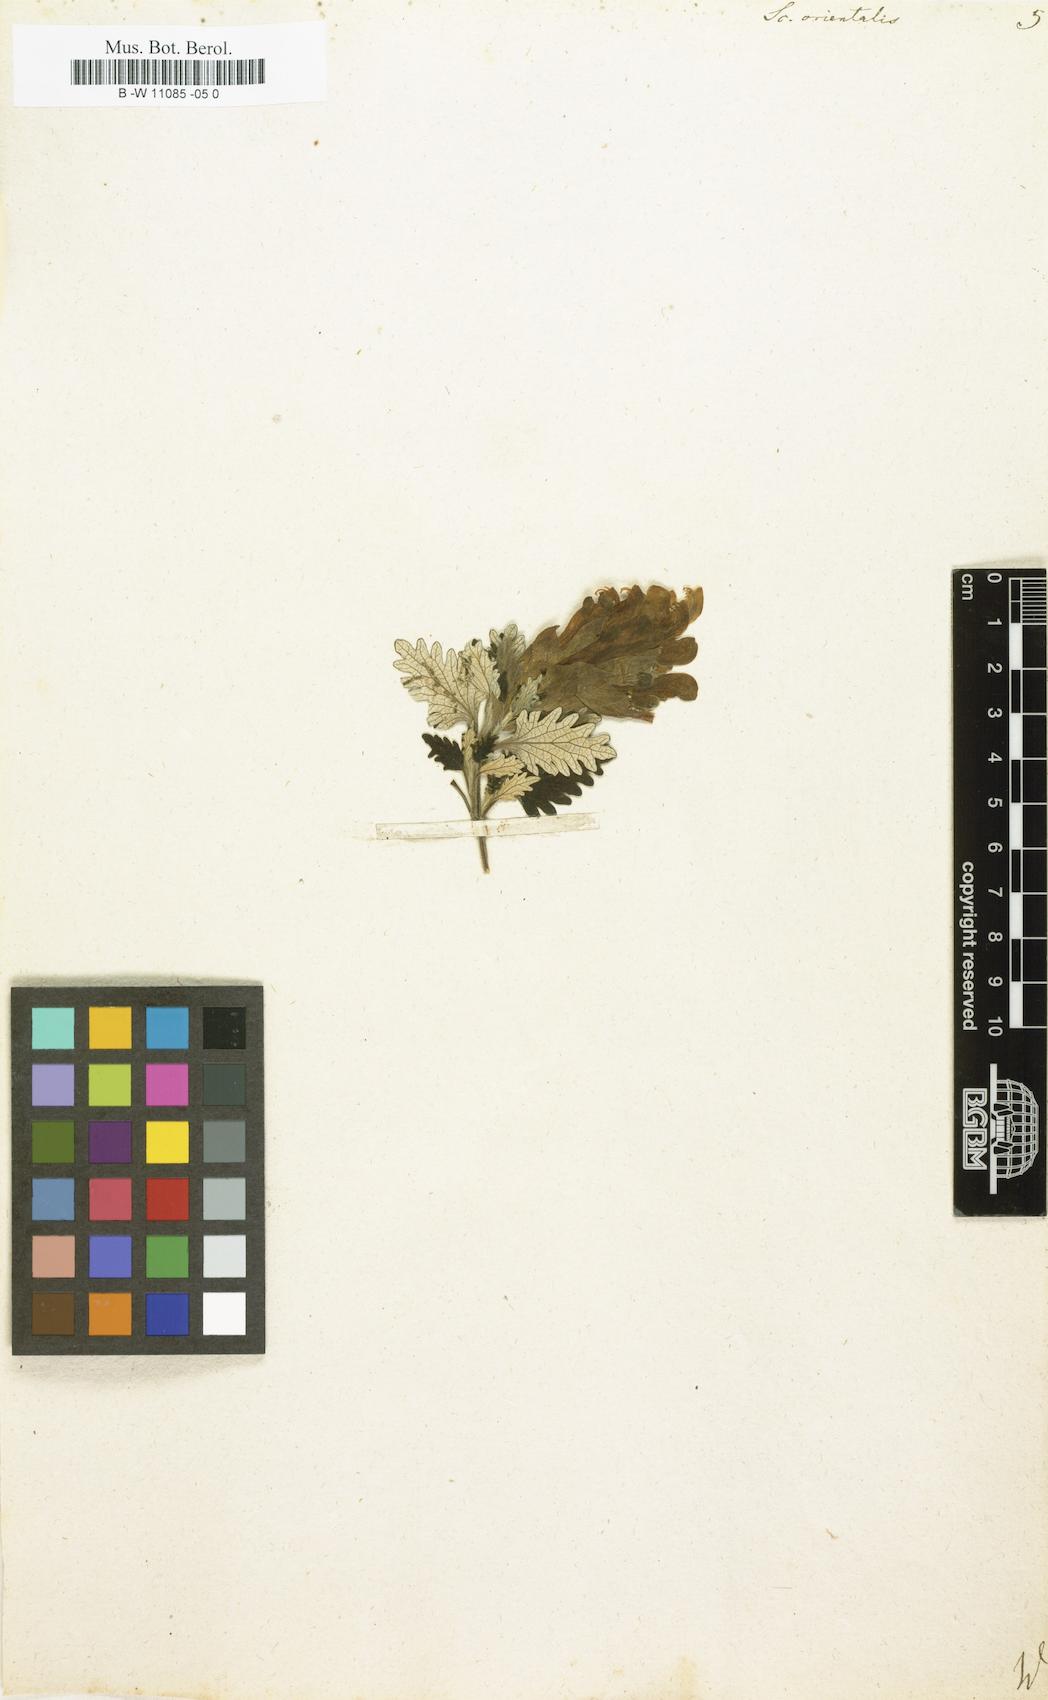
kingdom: Plantae
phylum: Tracheophyta
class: Magnoliopsida
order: Lamiales
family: Lamiaceae
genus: Scutellaria
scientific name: Scutellaria orientalis
